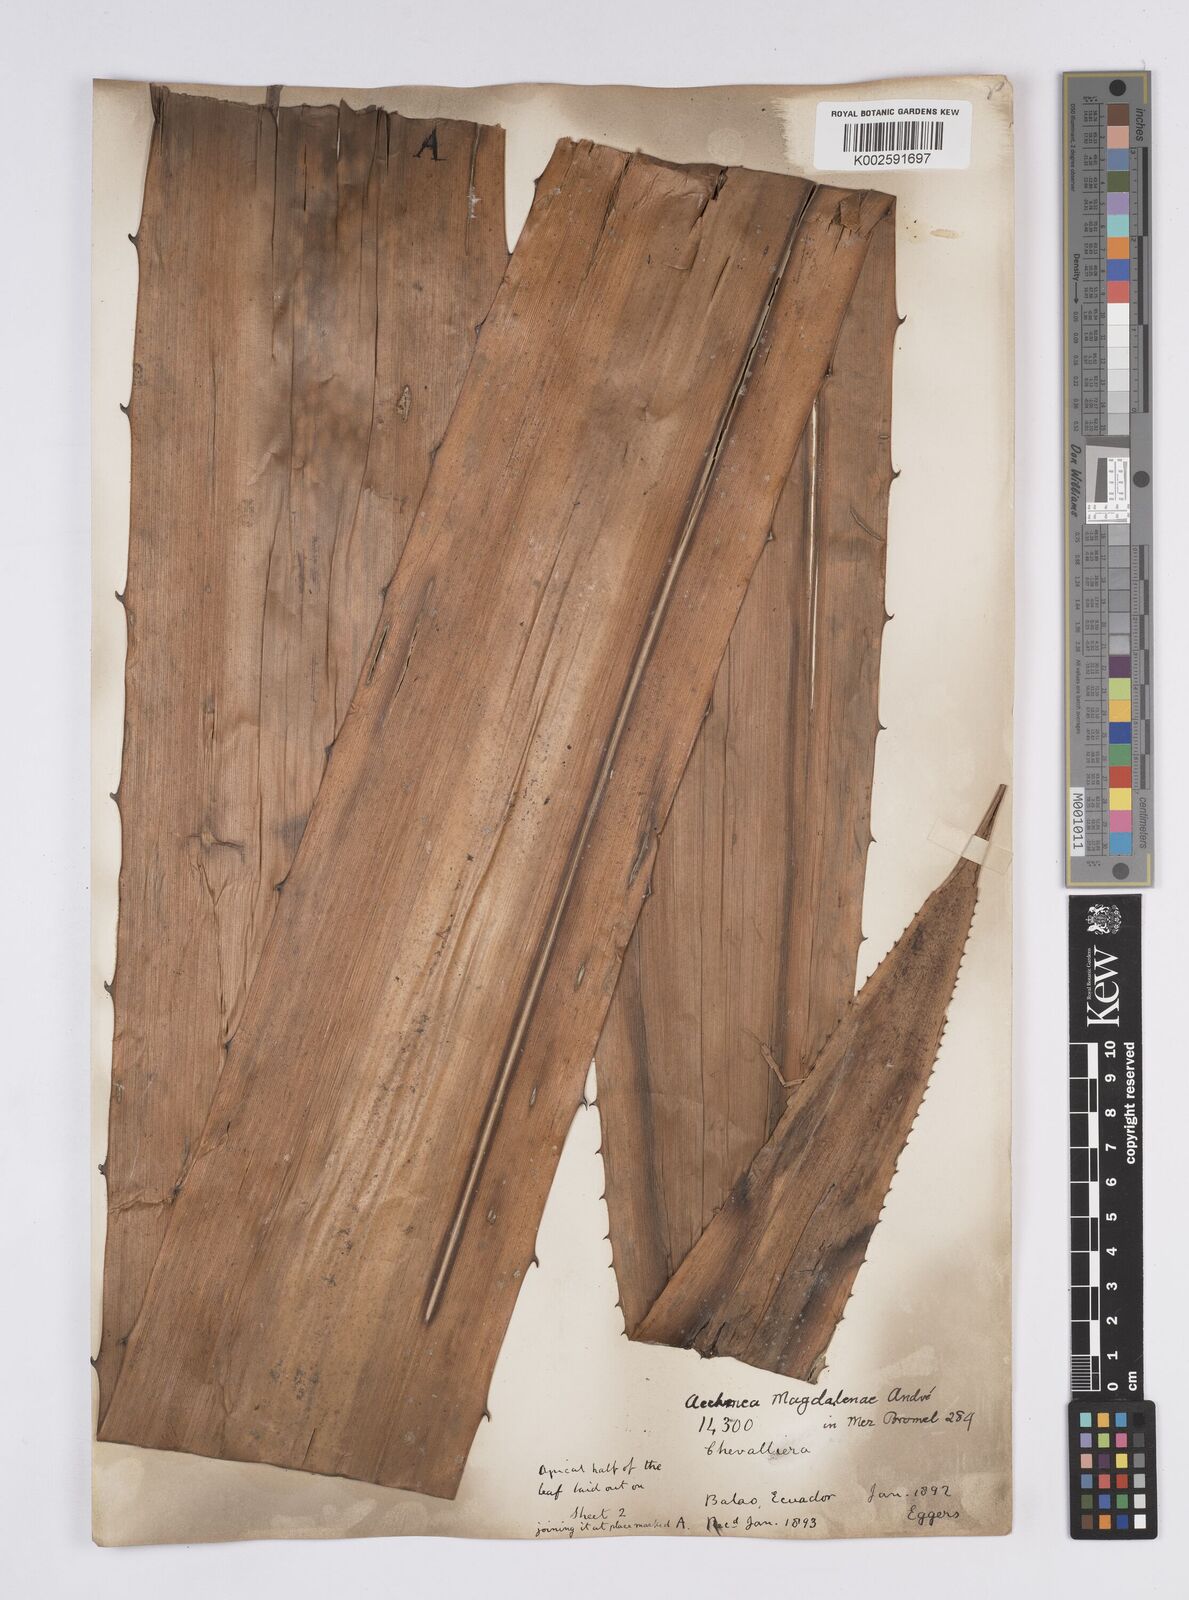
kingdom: Plantae
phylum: Tracheophyta
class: Liliopsida
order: Poales
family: Bromeliaceae
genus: Aechmea
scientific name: Aechmea magdalenae
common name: Arghan
